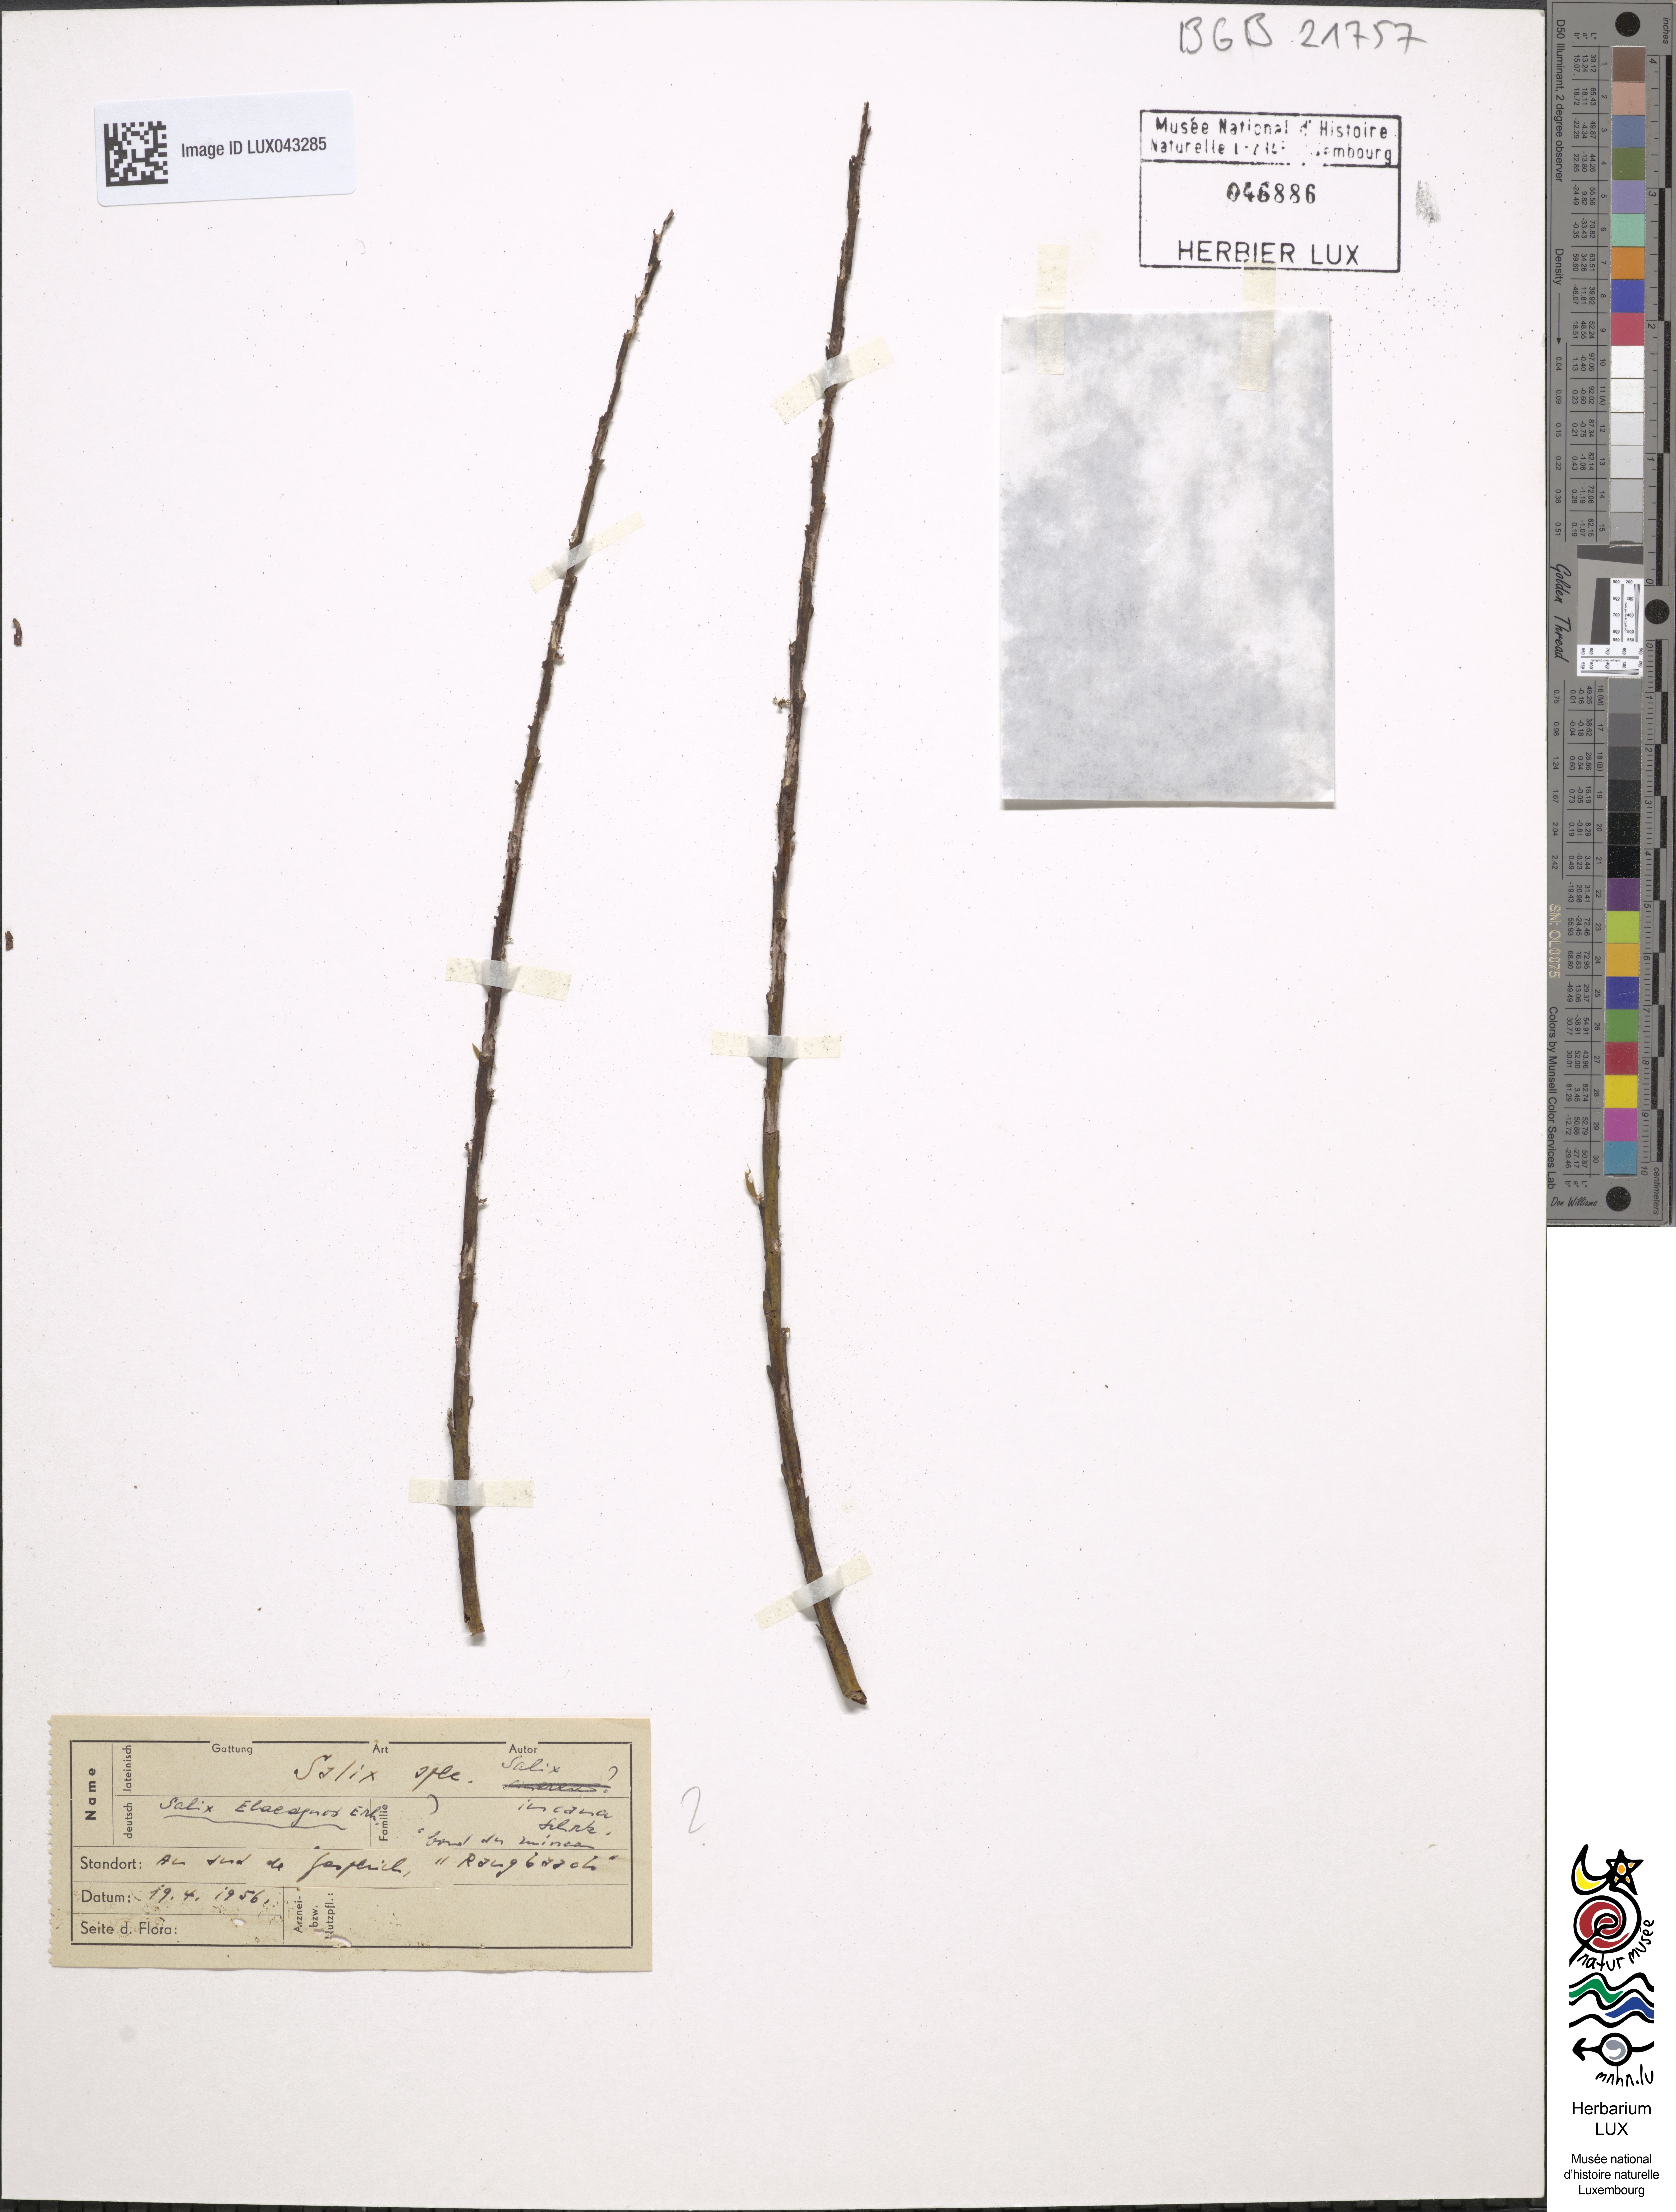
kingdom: Plantae
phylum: Tracheophyta
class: Magnoliopsida
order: Malpighiales
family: Salicaceae
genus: Salix
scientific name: Salix eleagnos
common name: Elaeagnus willow
